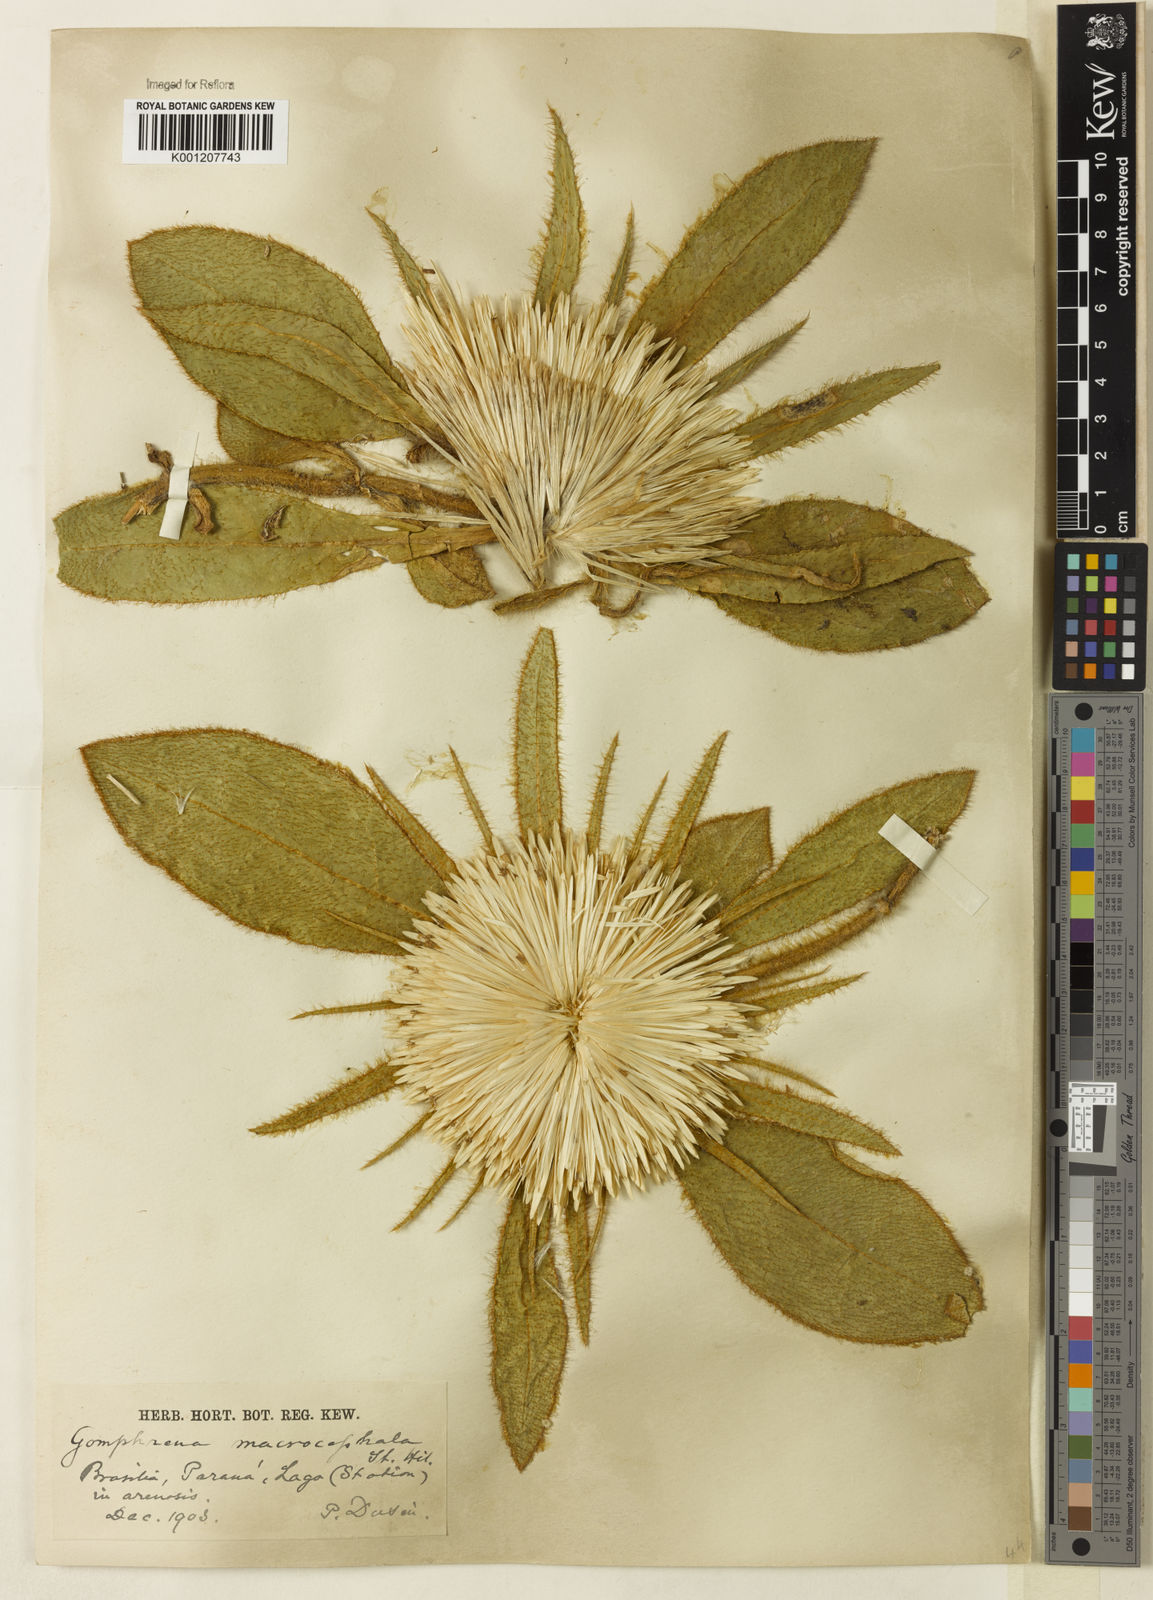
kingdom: Plantae
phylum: Tracheophyta
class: Magnoliopsida
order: Caryophyllales
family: Amaranthaceae
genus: Gomphrena
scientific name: Gomphrena macrocephala
